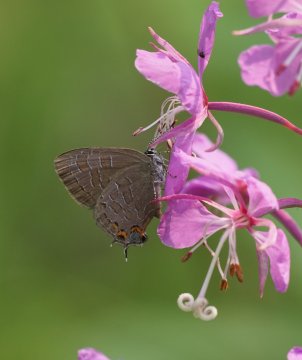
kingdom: Animalia
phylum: Arthropoda
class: Insecta
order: Lepidoptera
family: Lycaenidae
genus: Satyrium
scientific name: Satyrium liparops
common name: Striped Hairstreak
